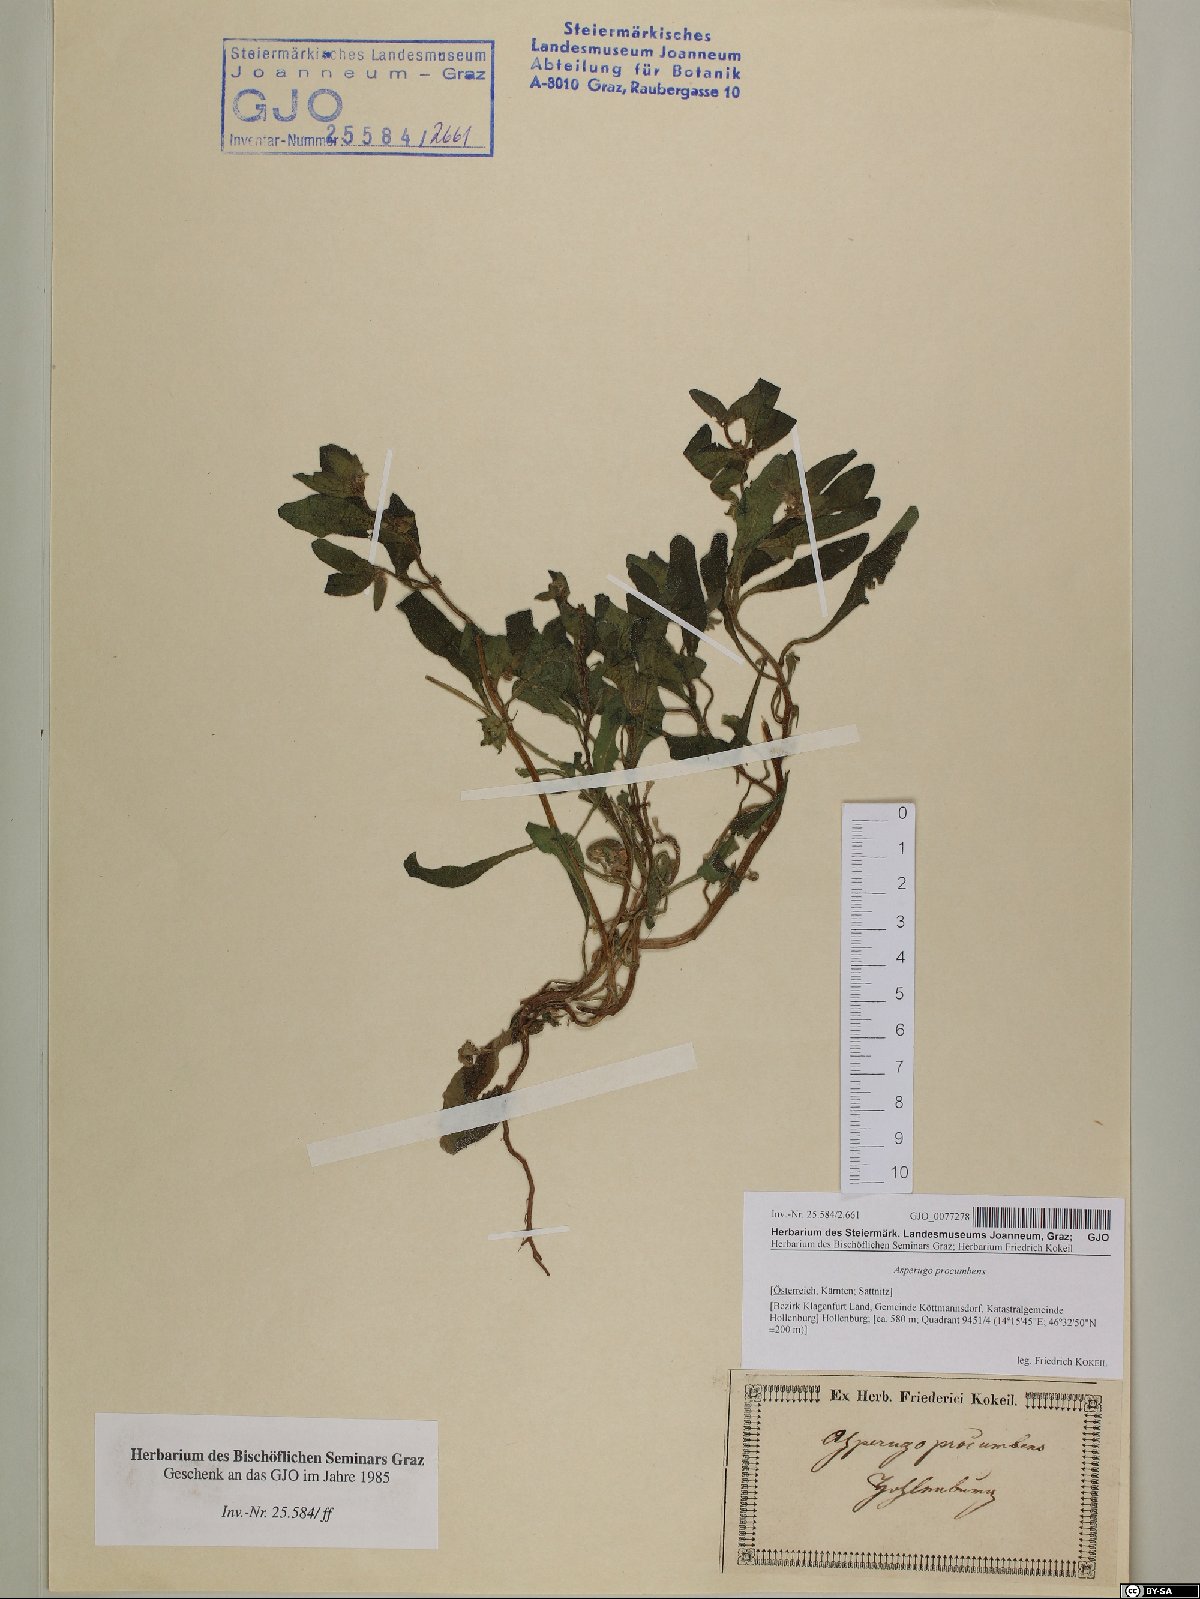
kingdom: Plantae
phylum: Tracheophyta
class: Magnoliopsida
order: Boraginales
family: Boraginaceae
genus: Asperugo
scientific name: Asperugo procumbens
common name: Madwort
